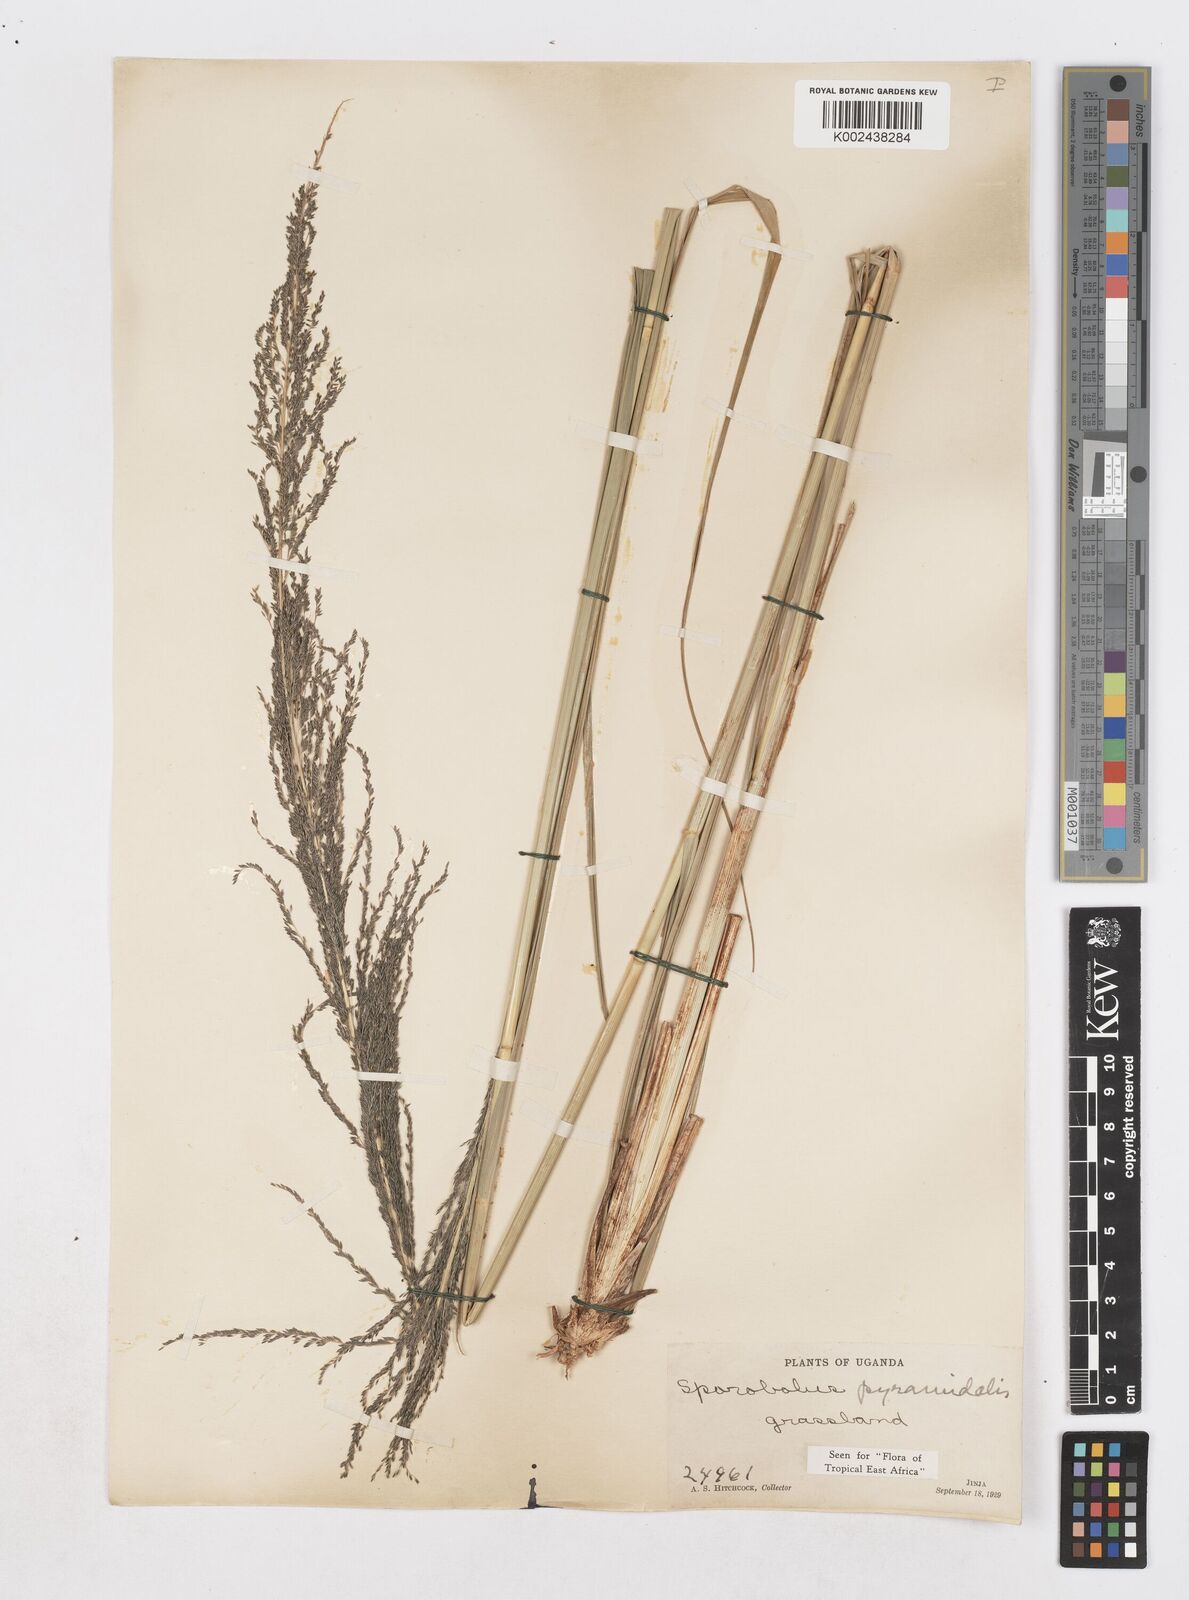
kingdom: Plantae
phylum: Tracheophyta
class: Liliopsida
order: Poales
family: Poaceae
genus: Sporobolus
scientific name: Sporobolus pyramidalis
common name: West indian dropseed
